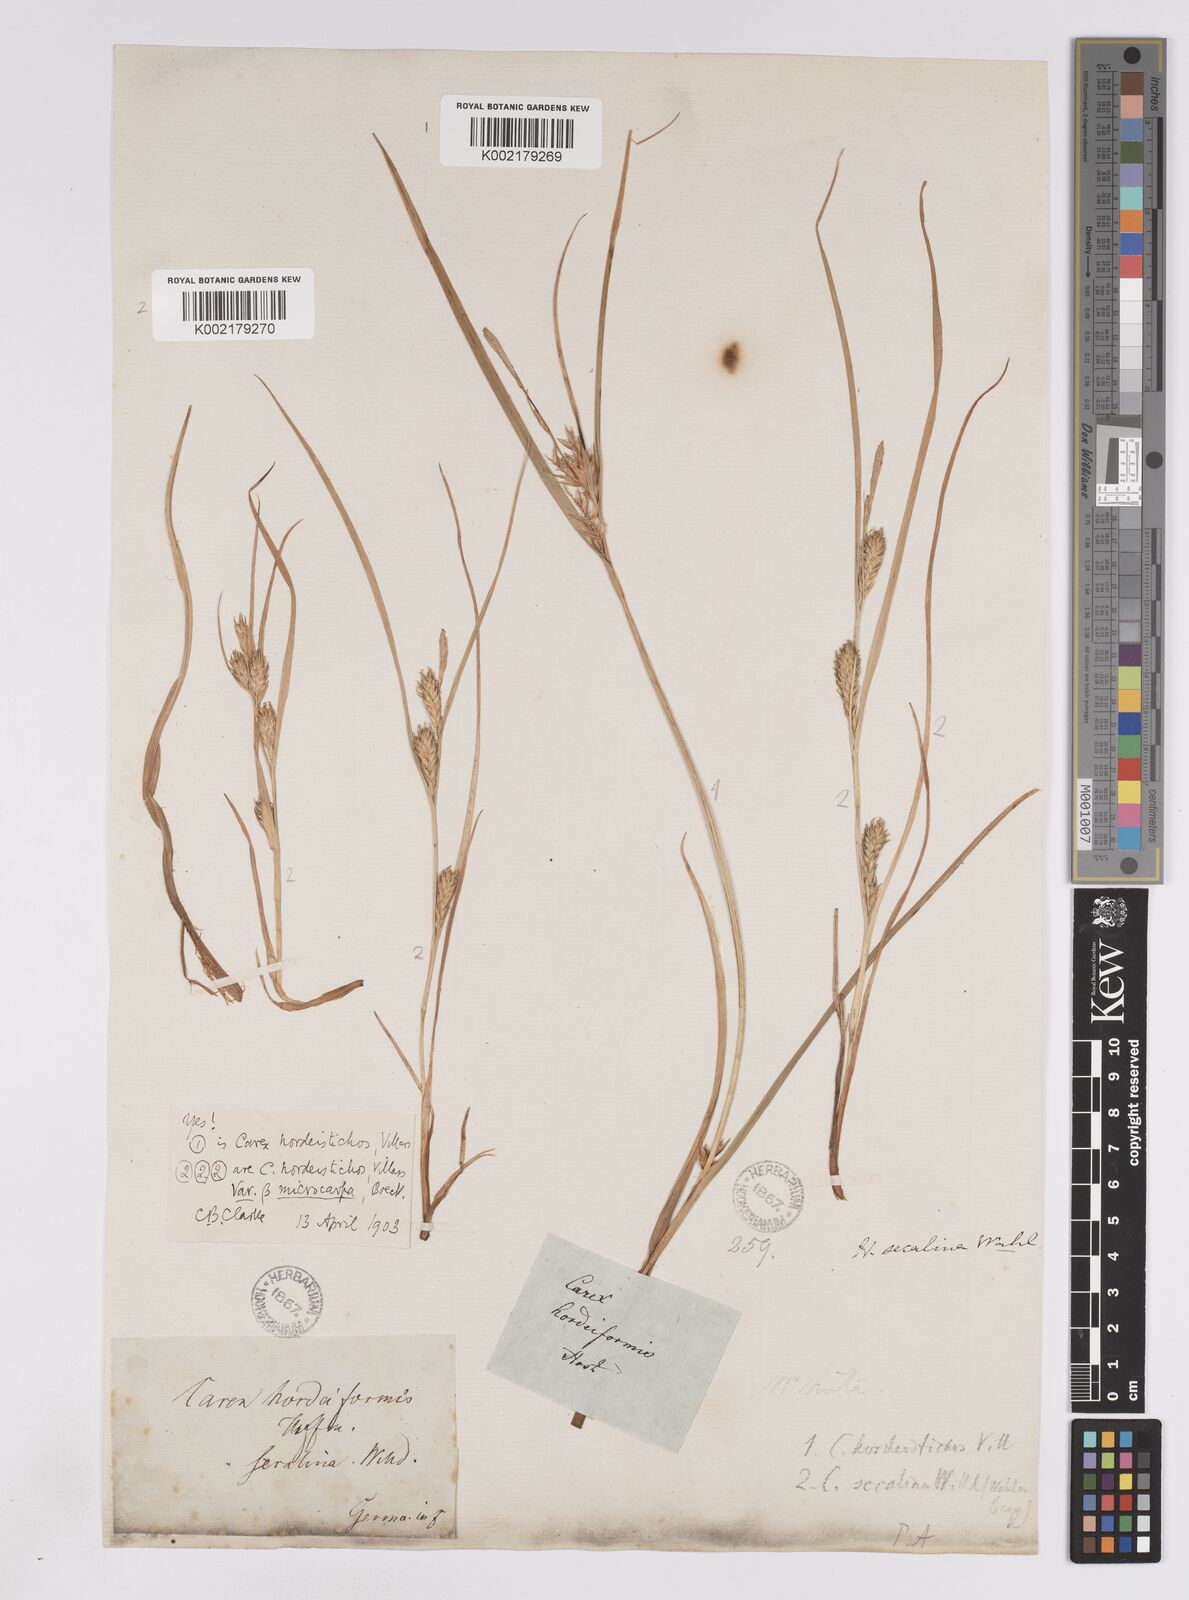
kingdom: Plantae
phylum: Tracheophyta
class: Liliopsida
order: Poales
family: Cyperaceae
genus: Carex
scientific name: Carex hordeistichos
